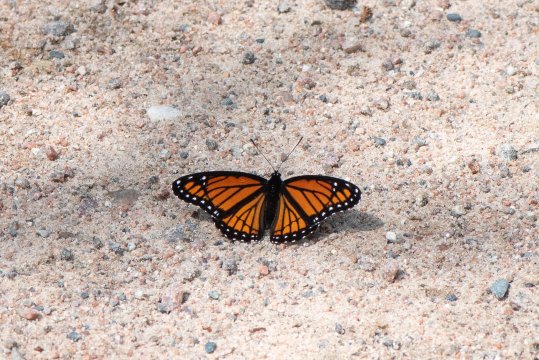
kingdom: Animalia
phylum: Arthropoda
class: Insecta
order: Lepidoptera
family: Nymphalidae
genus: Limenitis
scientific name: Limenitis archippus
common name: Viceroy
